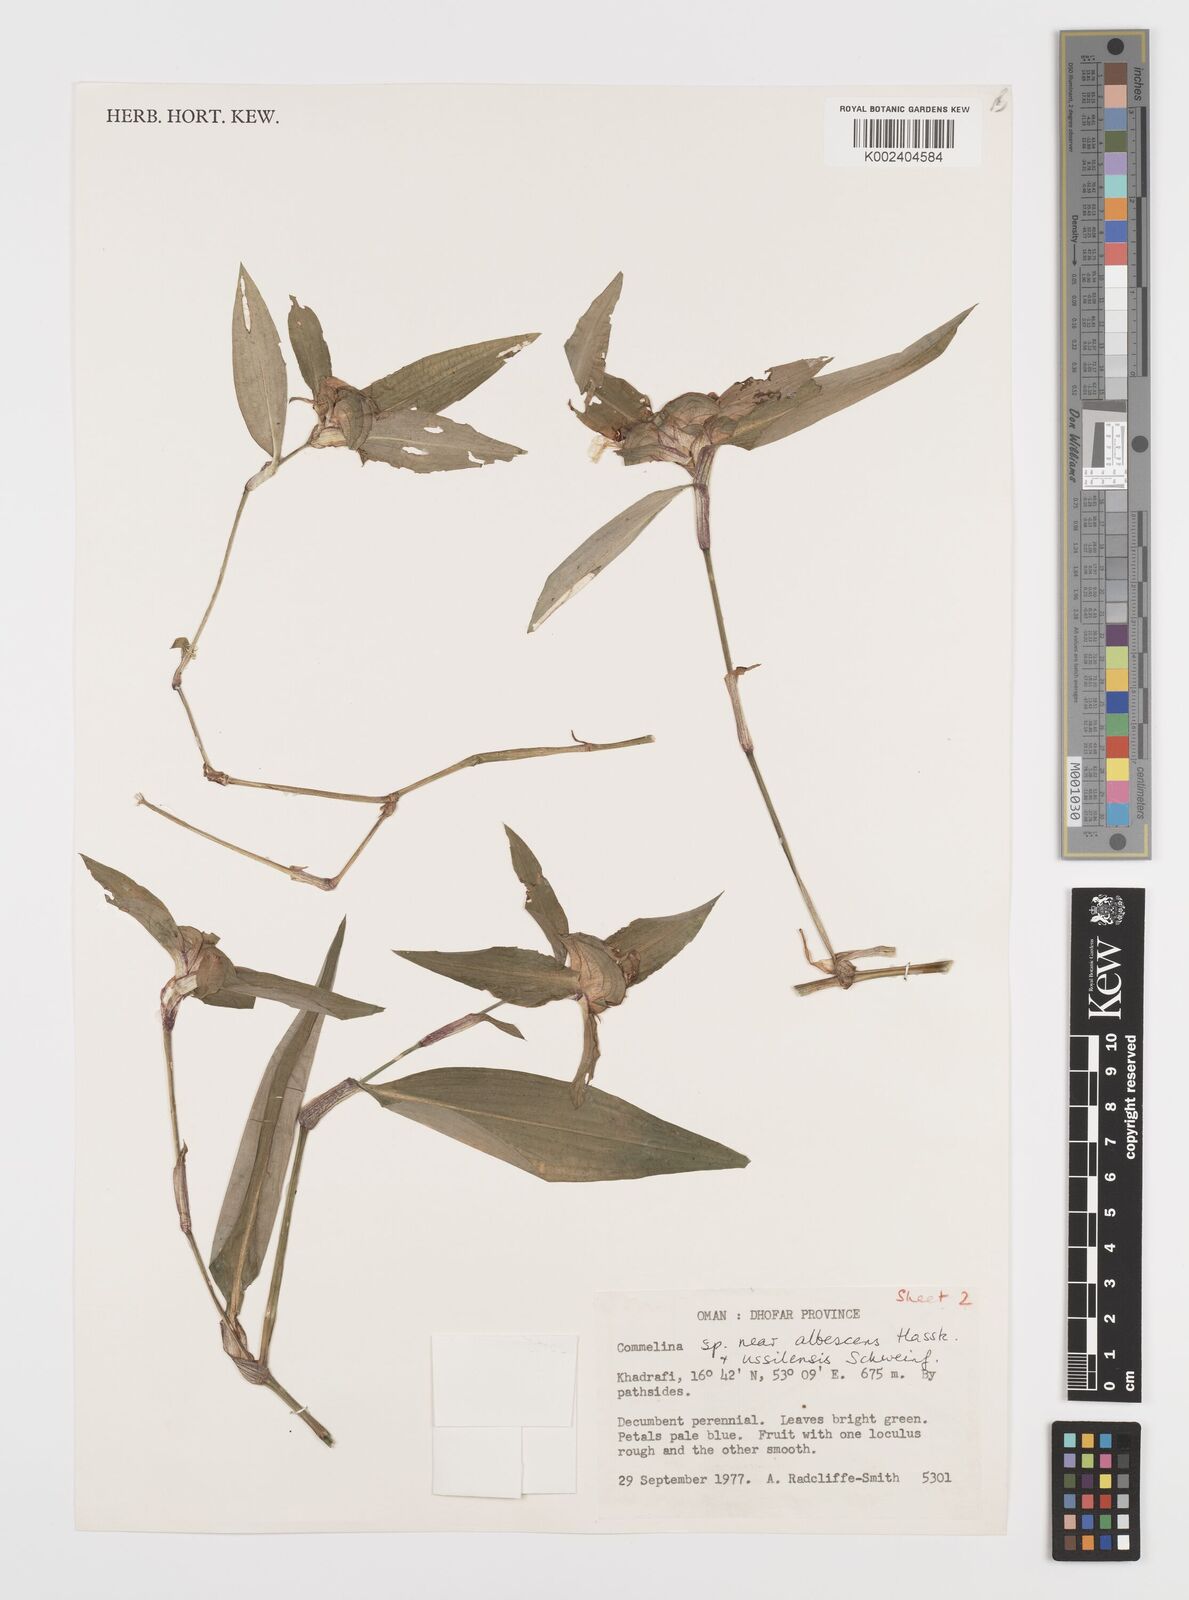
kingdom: Plantae
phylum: Tracheophyta
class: Liliopsida
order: Commelinales
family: Commelinaceae
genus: Commelina
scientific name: Commelina albescens
